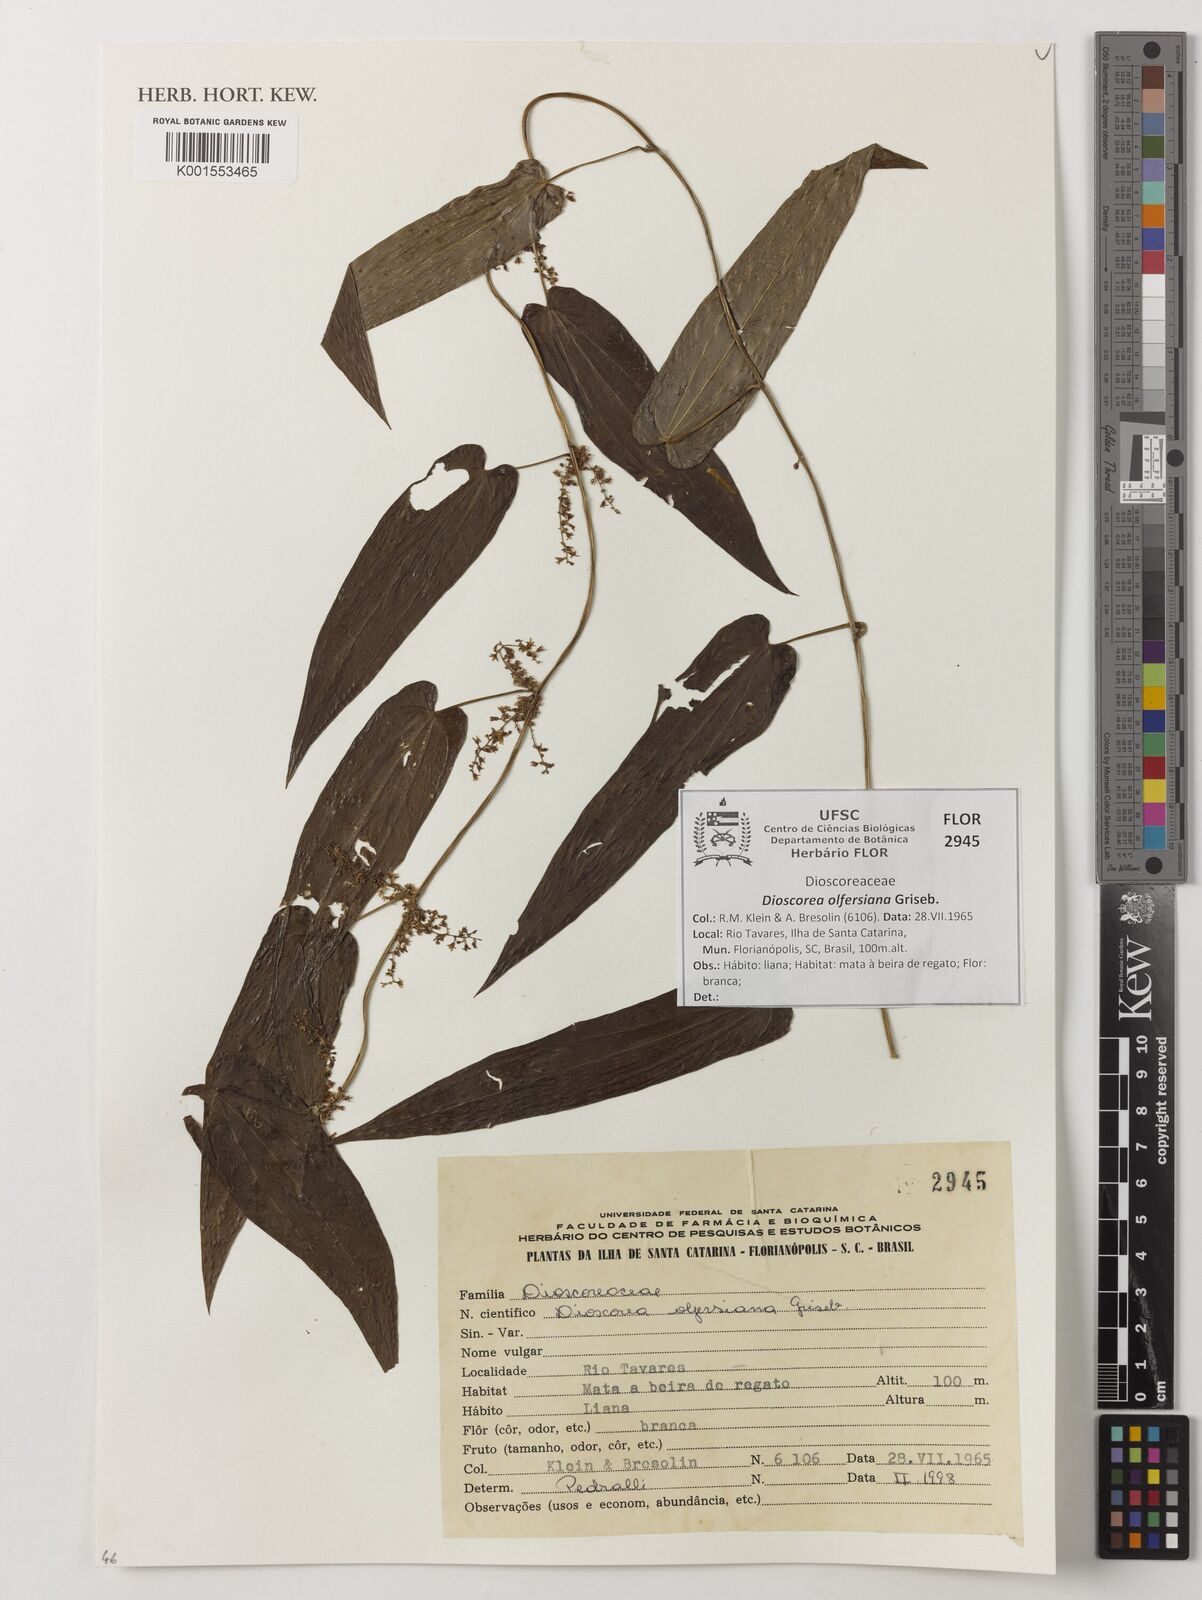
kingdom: Plantae
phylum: Tracheophyta
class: Liliopsida
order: Dioscoreales
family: Dioscoreaceae
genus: Dioscorea
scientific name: Dioscorea olfersiana
